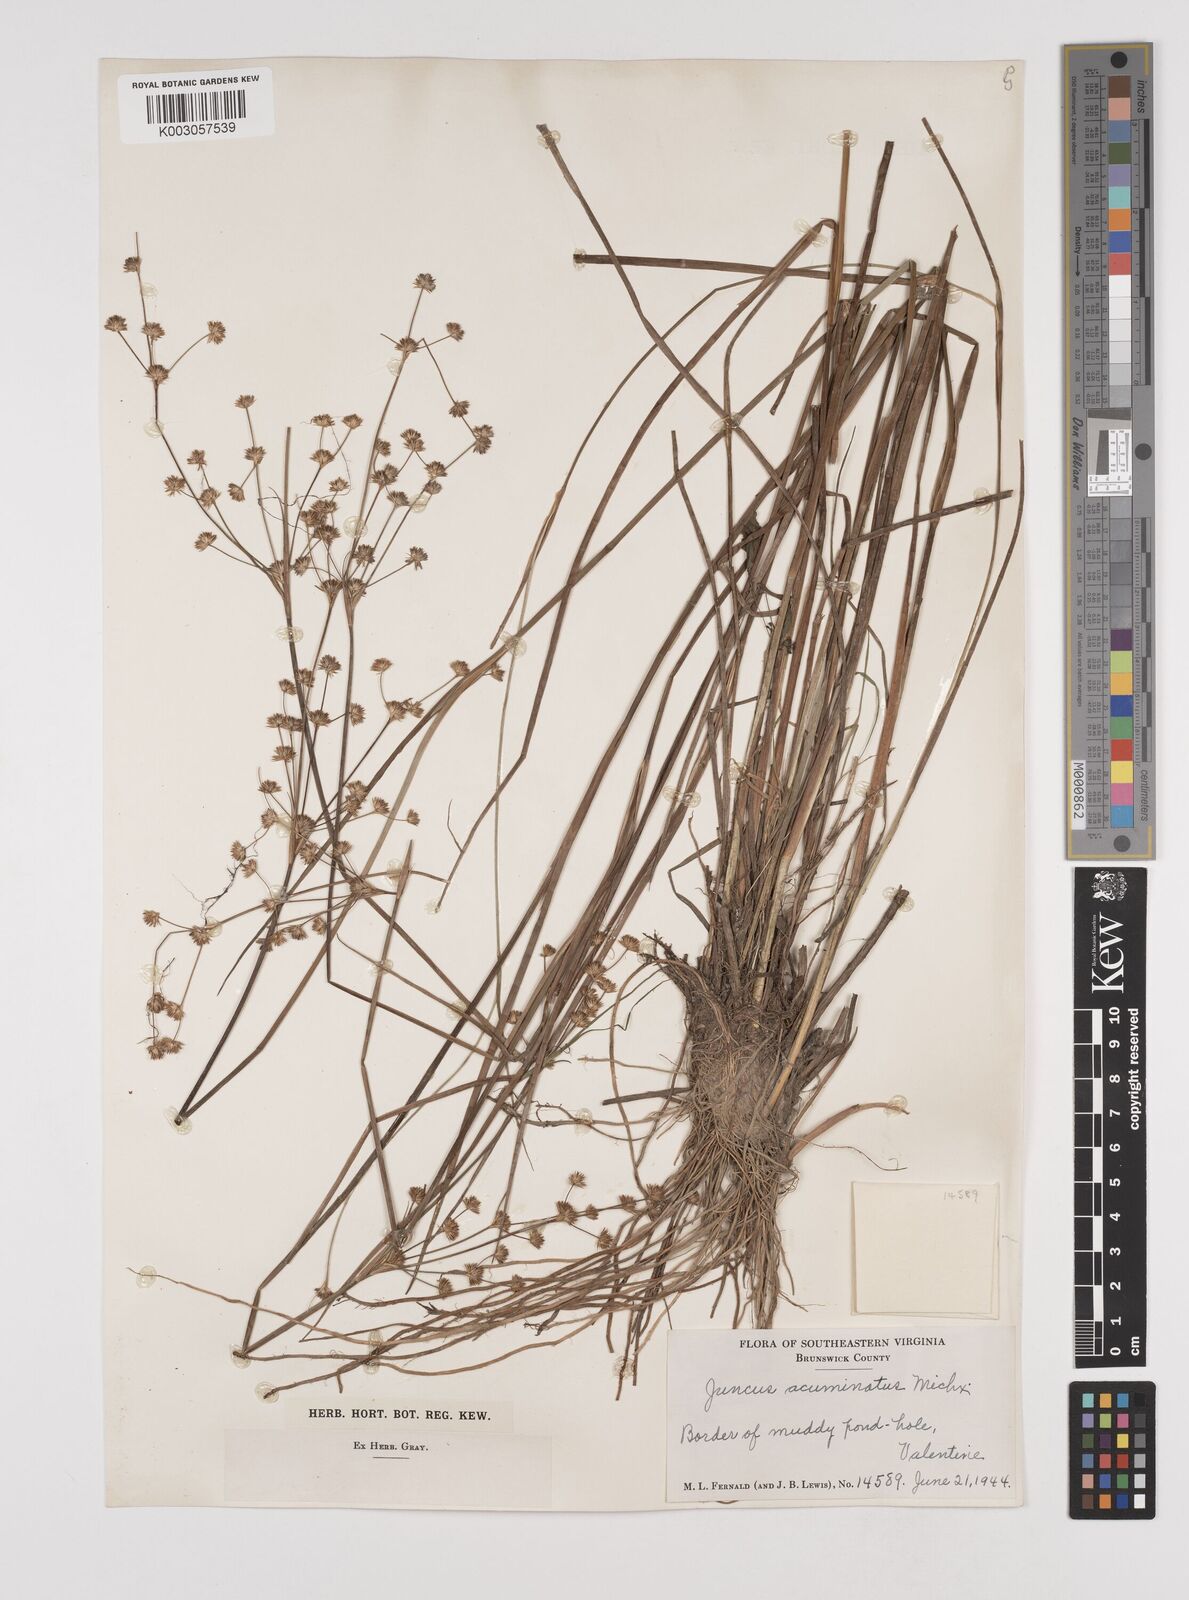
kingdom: Plantae
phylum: Tracheophyta
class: Liliopsida
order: Poales
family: Juncaceae
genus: Juncus
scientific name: Juncus acuminatus
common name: Knotty-leaved rush
